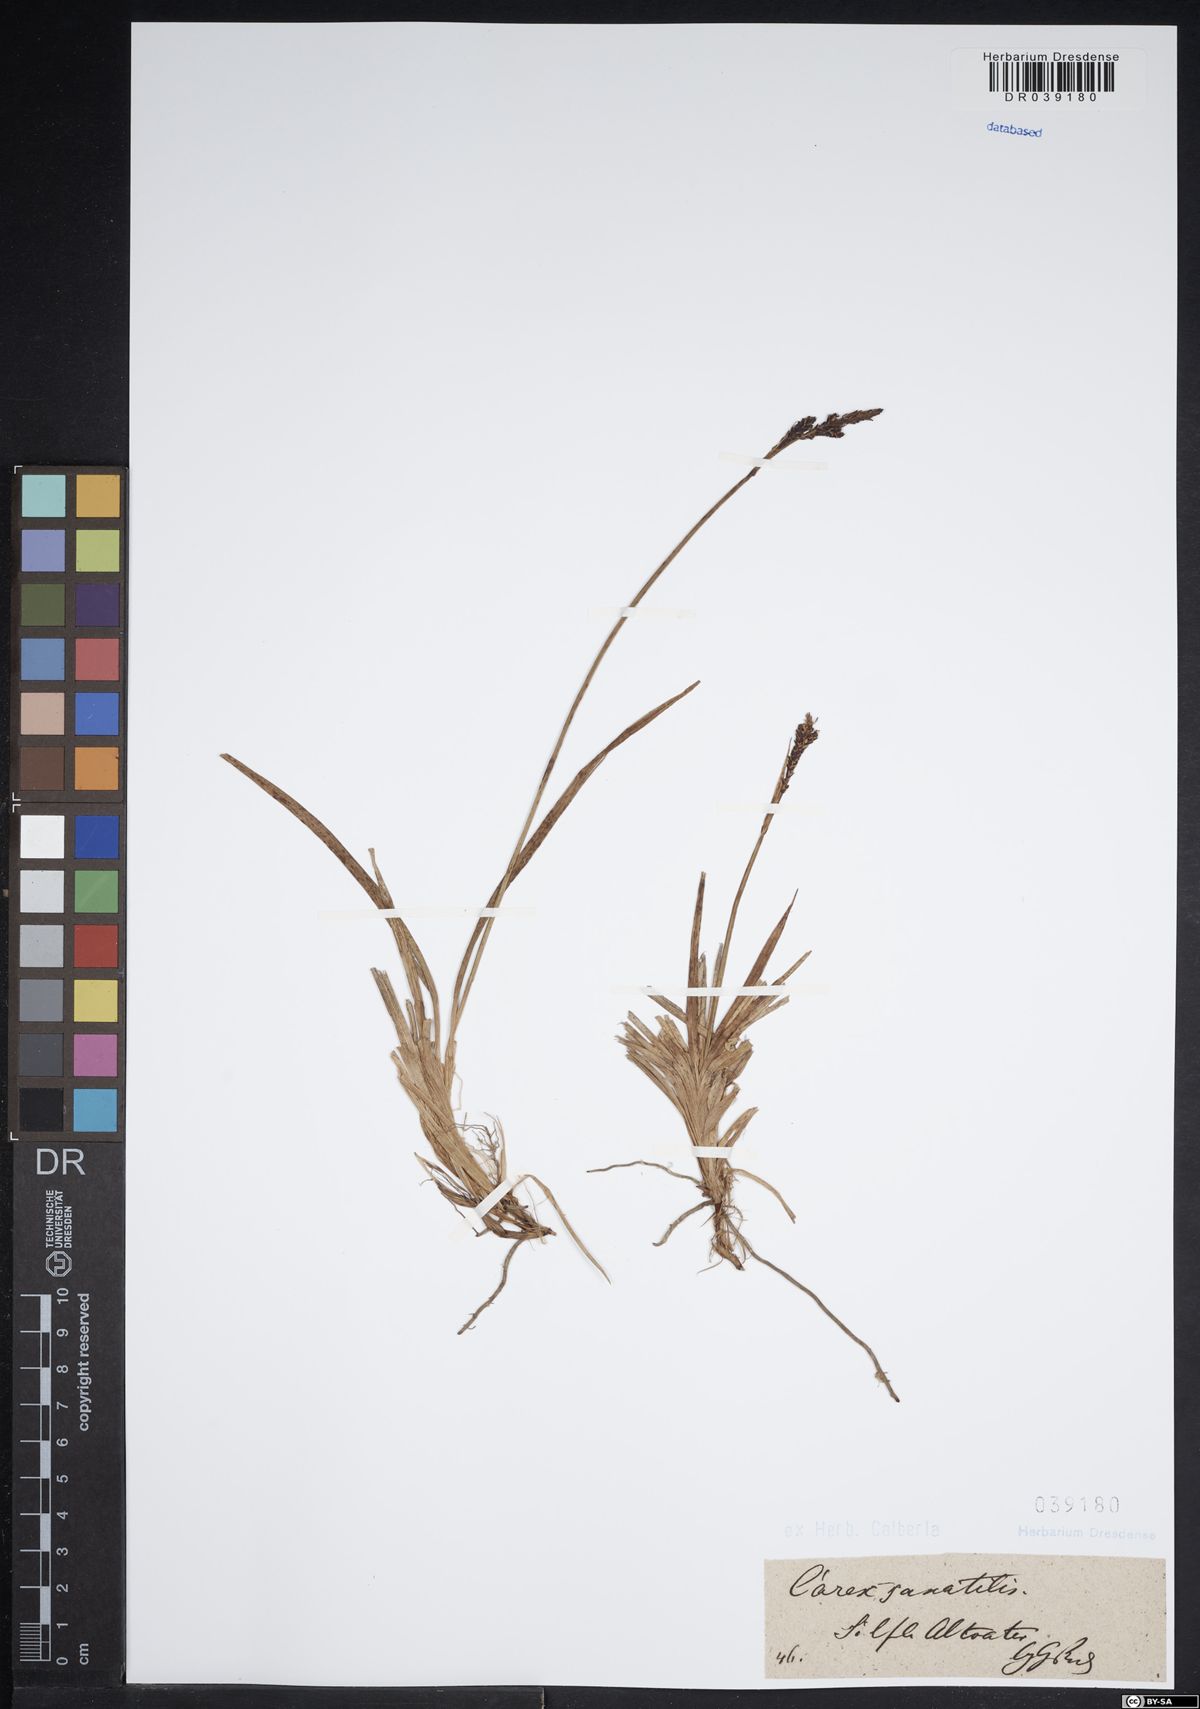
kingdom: Plantae
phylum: Tracheophyta
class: Liliopsida
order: Poales
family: Cyperaceae
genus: Carex
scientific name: Carex saxatilis
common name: Russet sedge
